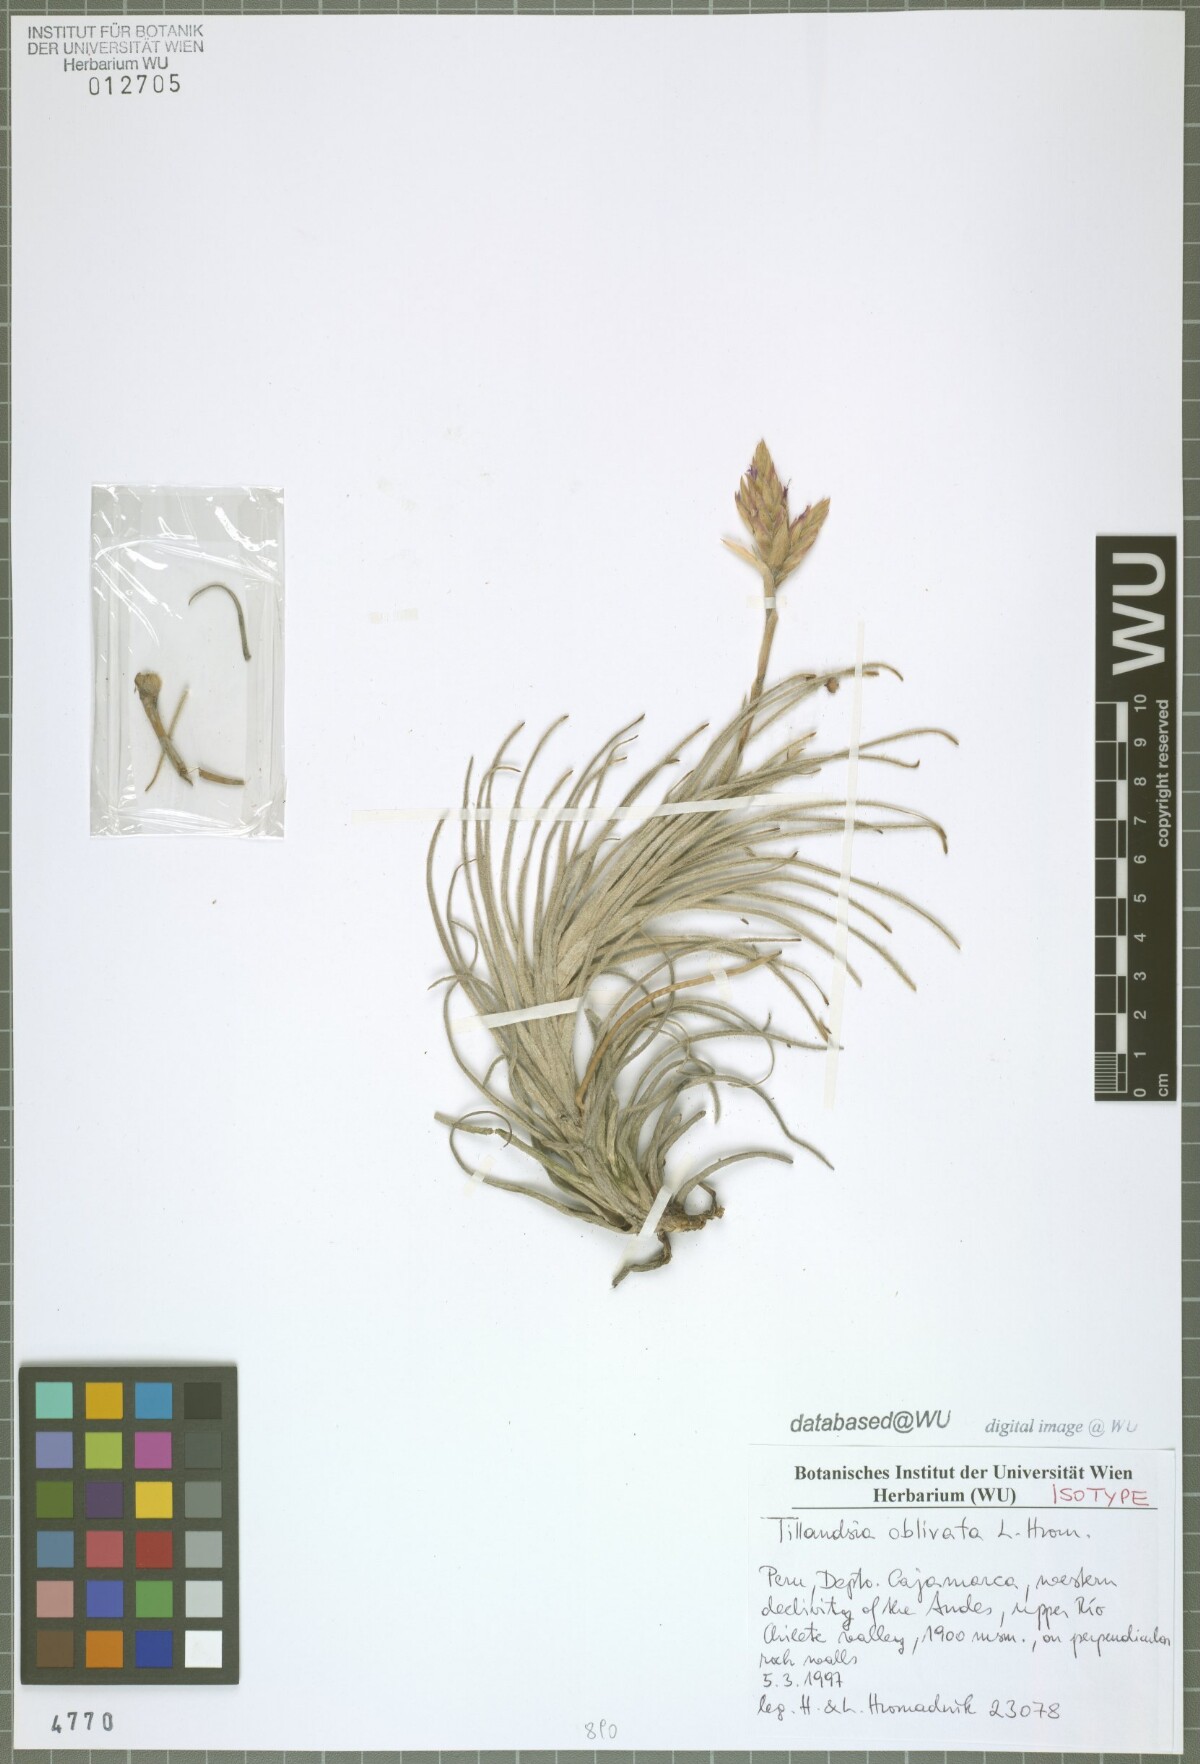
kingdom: Plantae
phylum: Tracheophyta
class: Liliopsida
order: Poales
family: Bromeliaceae
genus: Tillandsia
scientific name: Tillandsia oblivata
